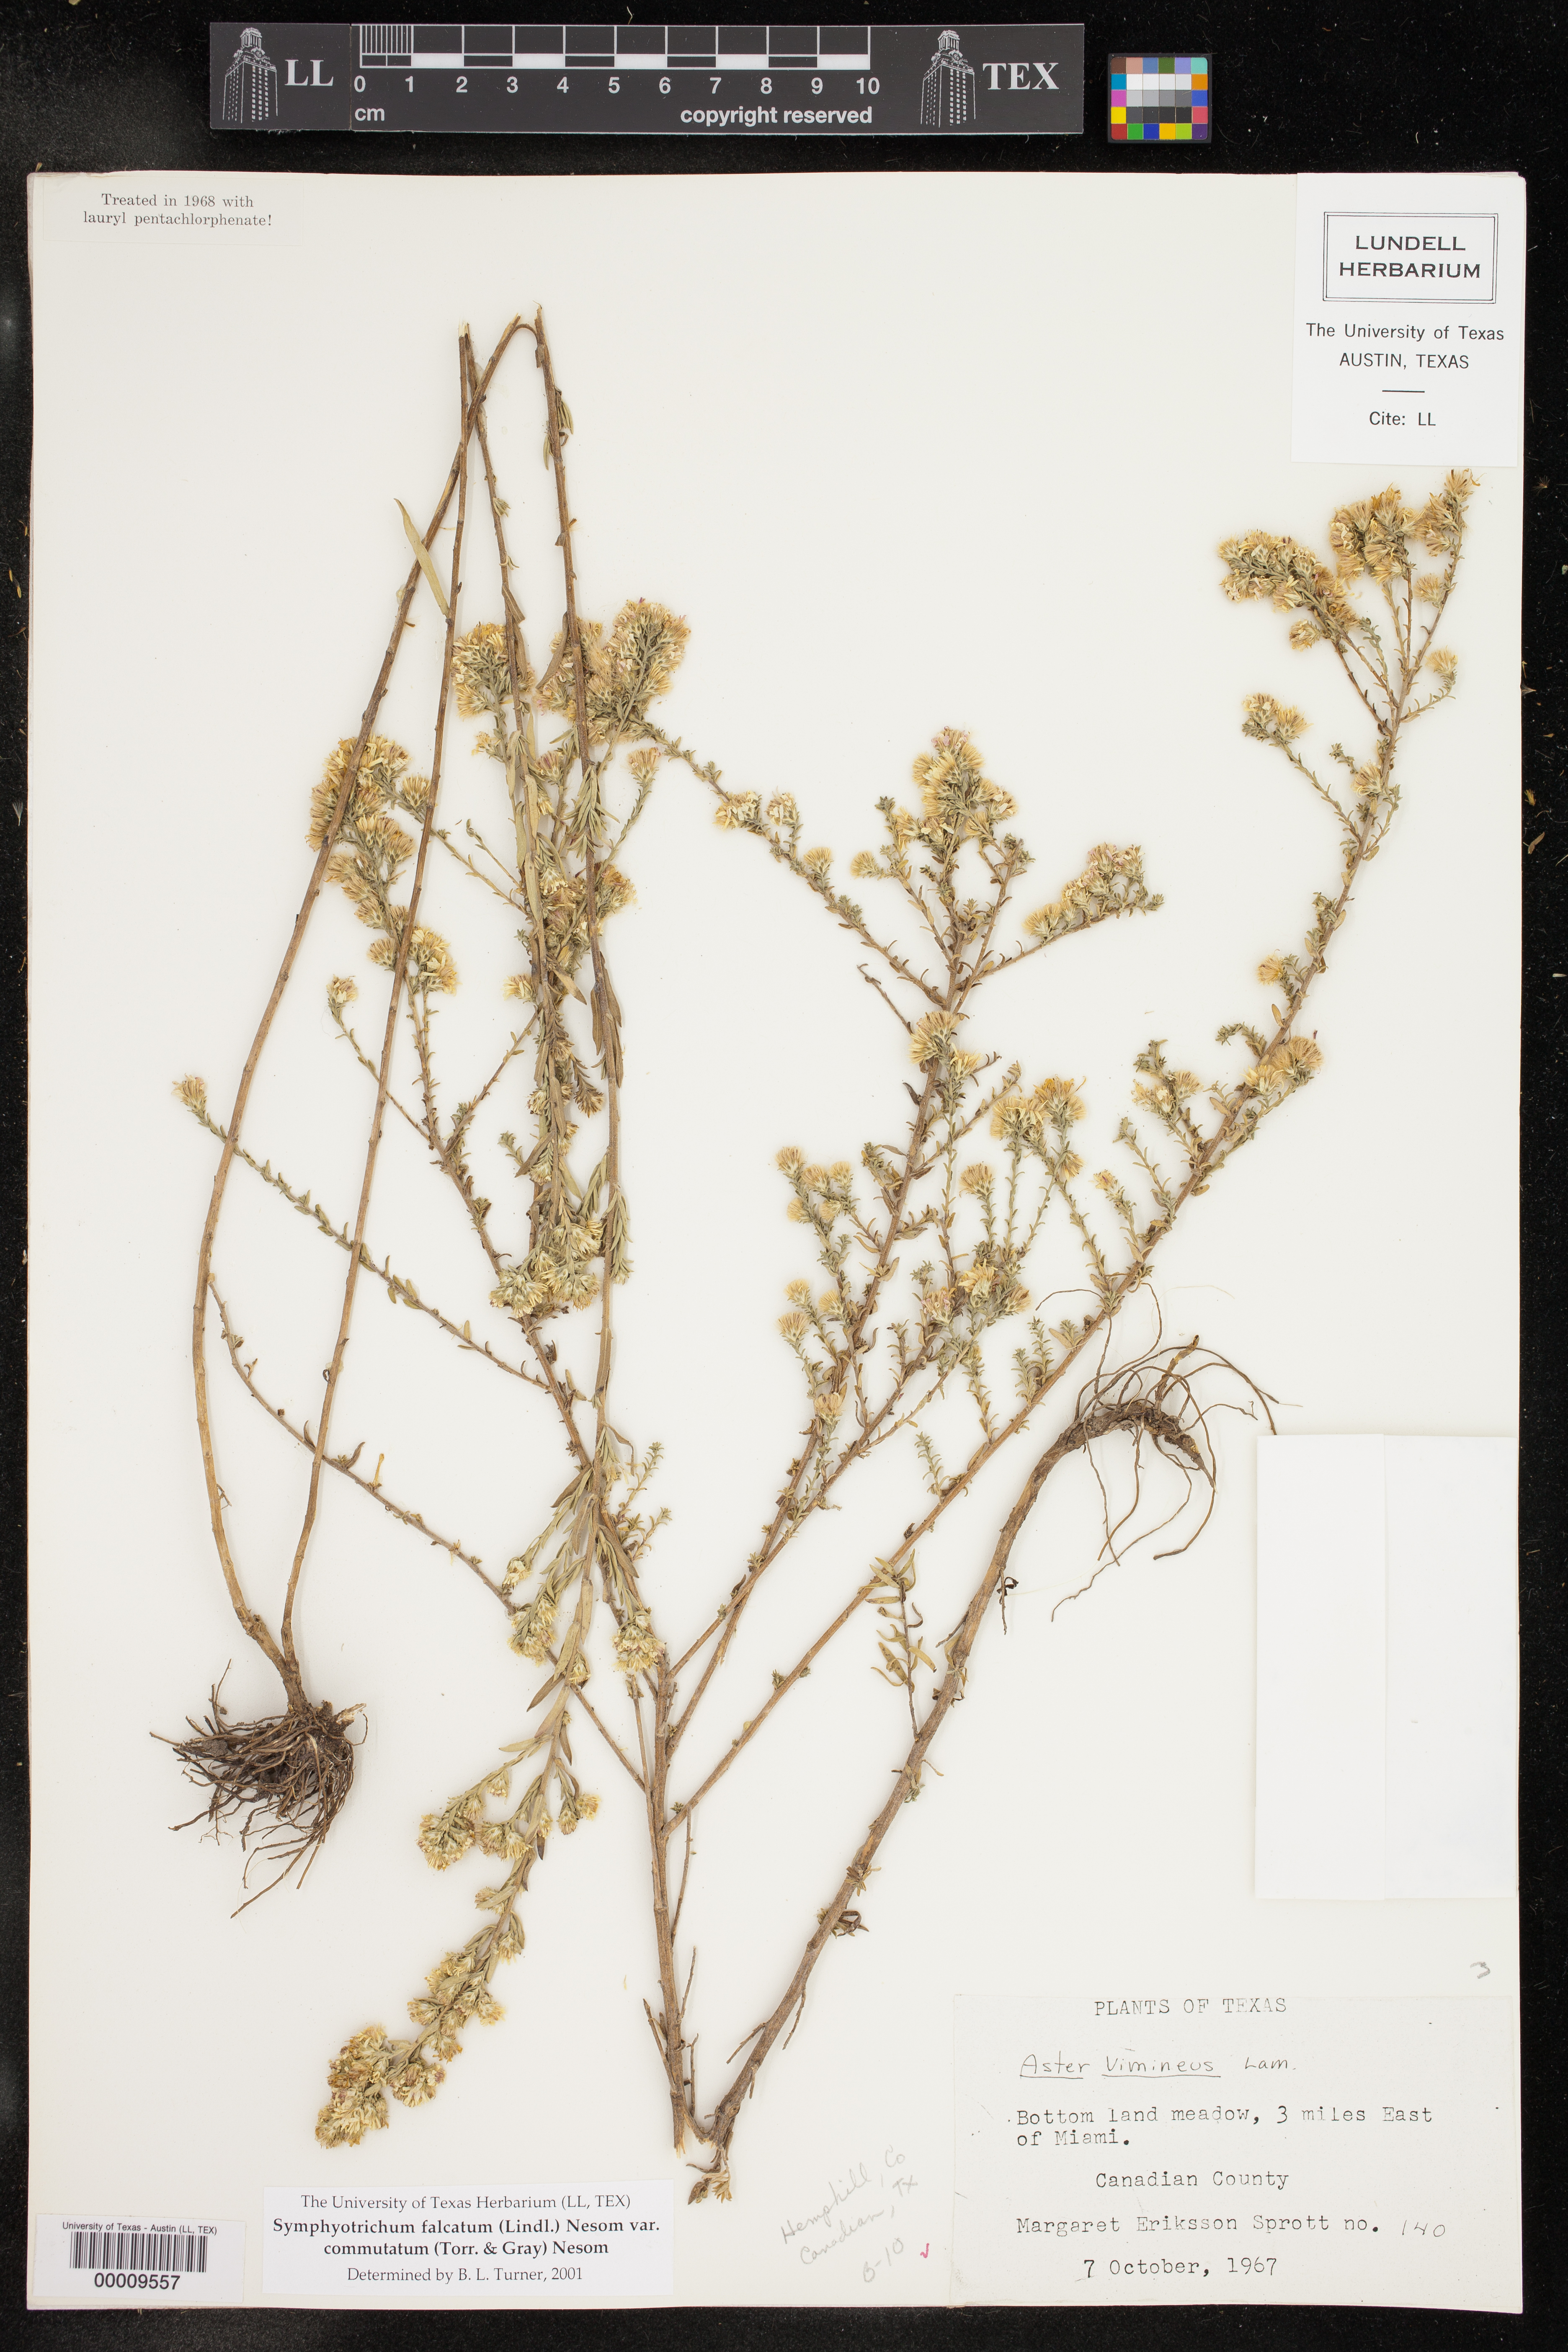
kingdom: Plantae
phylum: Tracheophyta
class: Magnoliopsida
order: Asterales
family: Asteraceae
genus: Symphyotrichum
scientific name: Symphyotrichum falcatum
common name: Creeping white prairie aster
